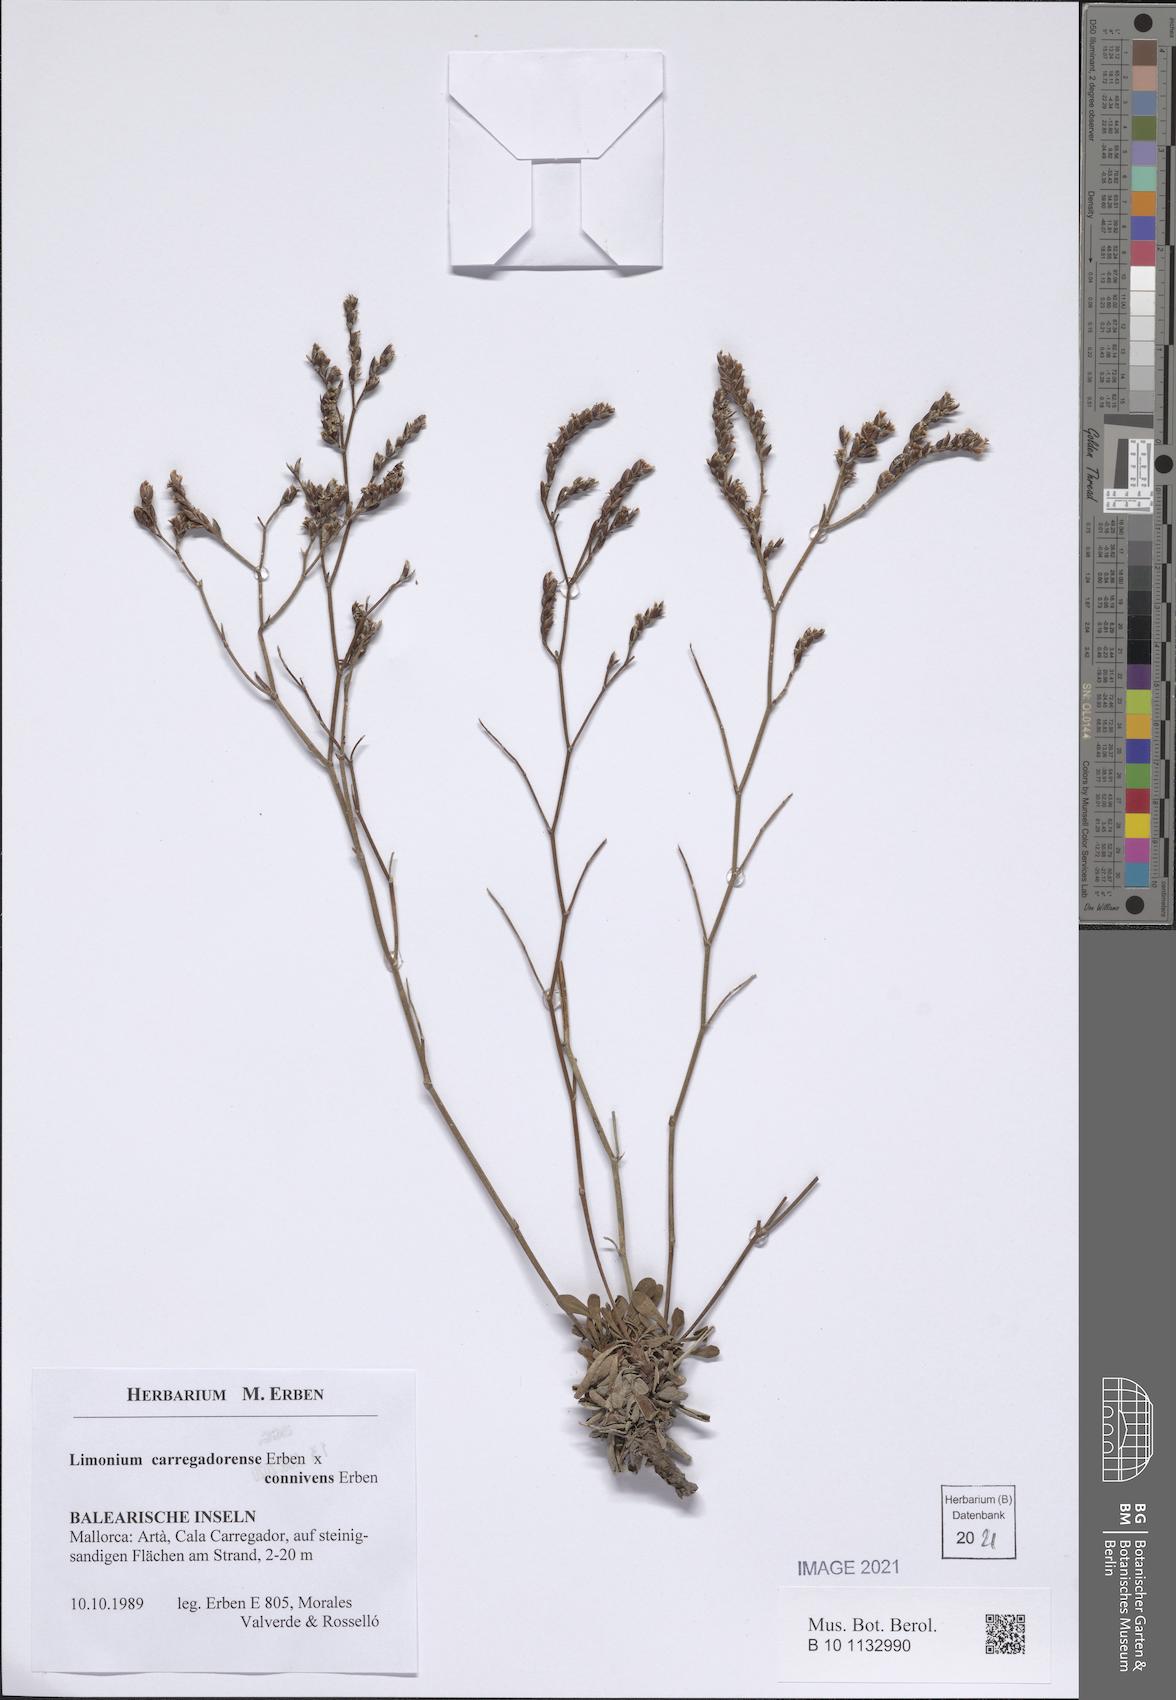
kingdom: Plantae
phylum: Tracheophyta
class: Magnoliopsida
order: Caryophyllales
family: Plumbaginaceae
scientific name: Plumbaginaceae
